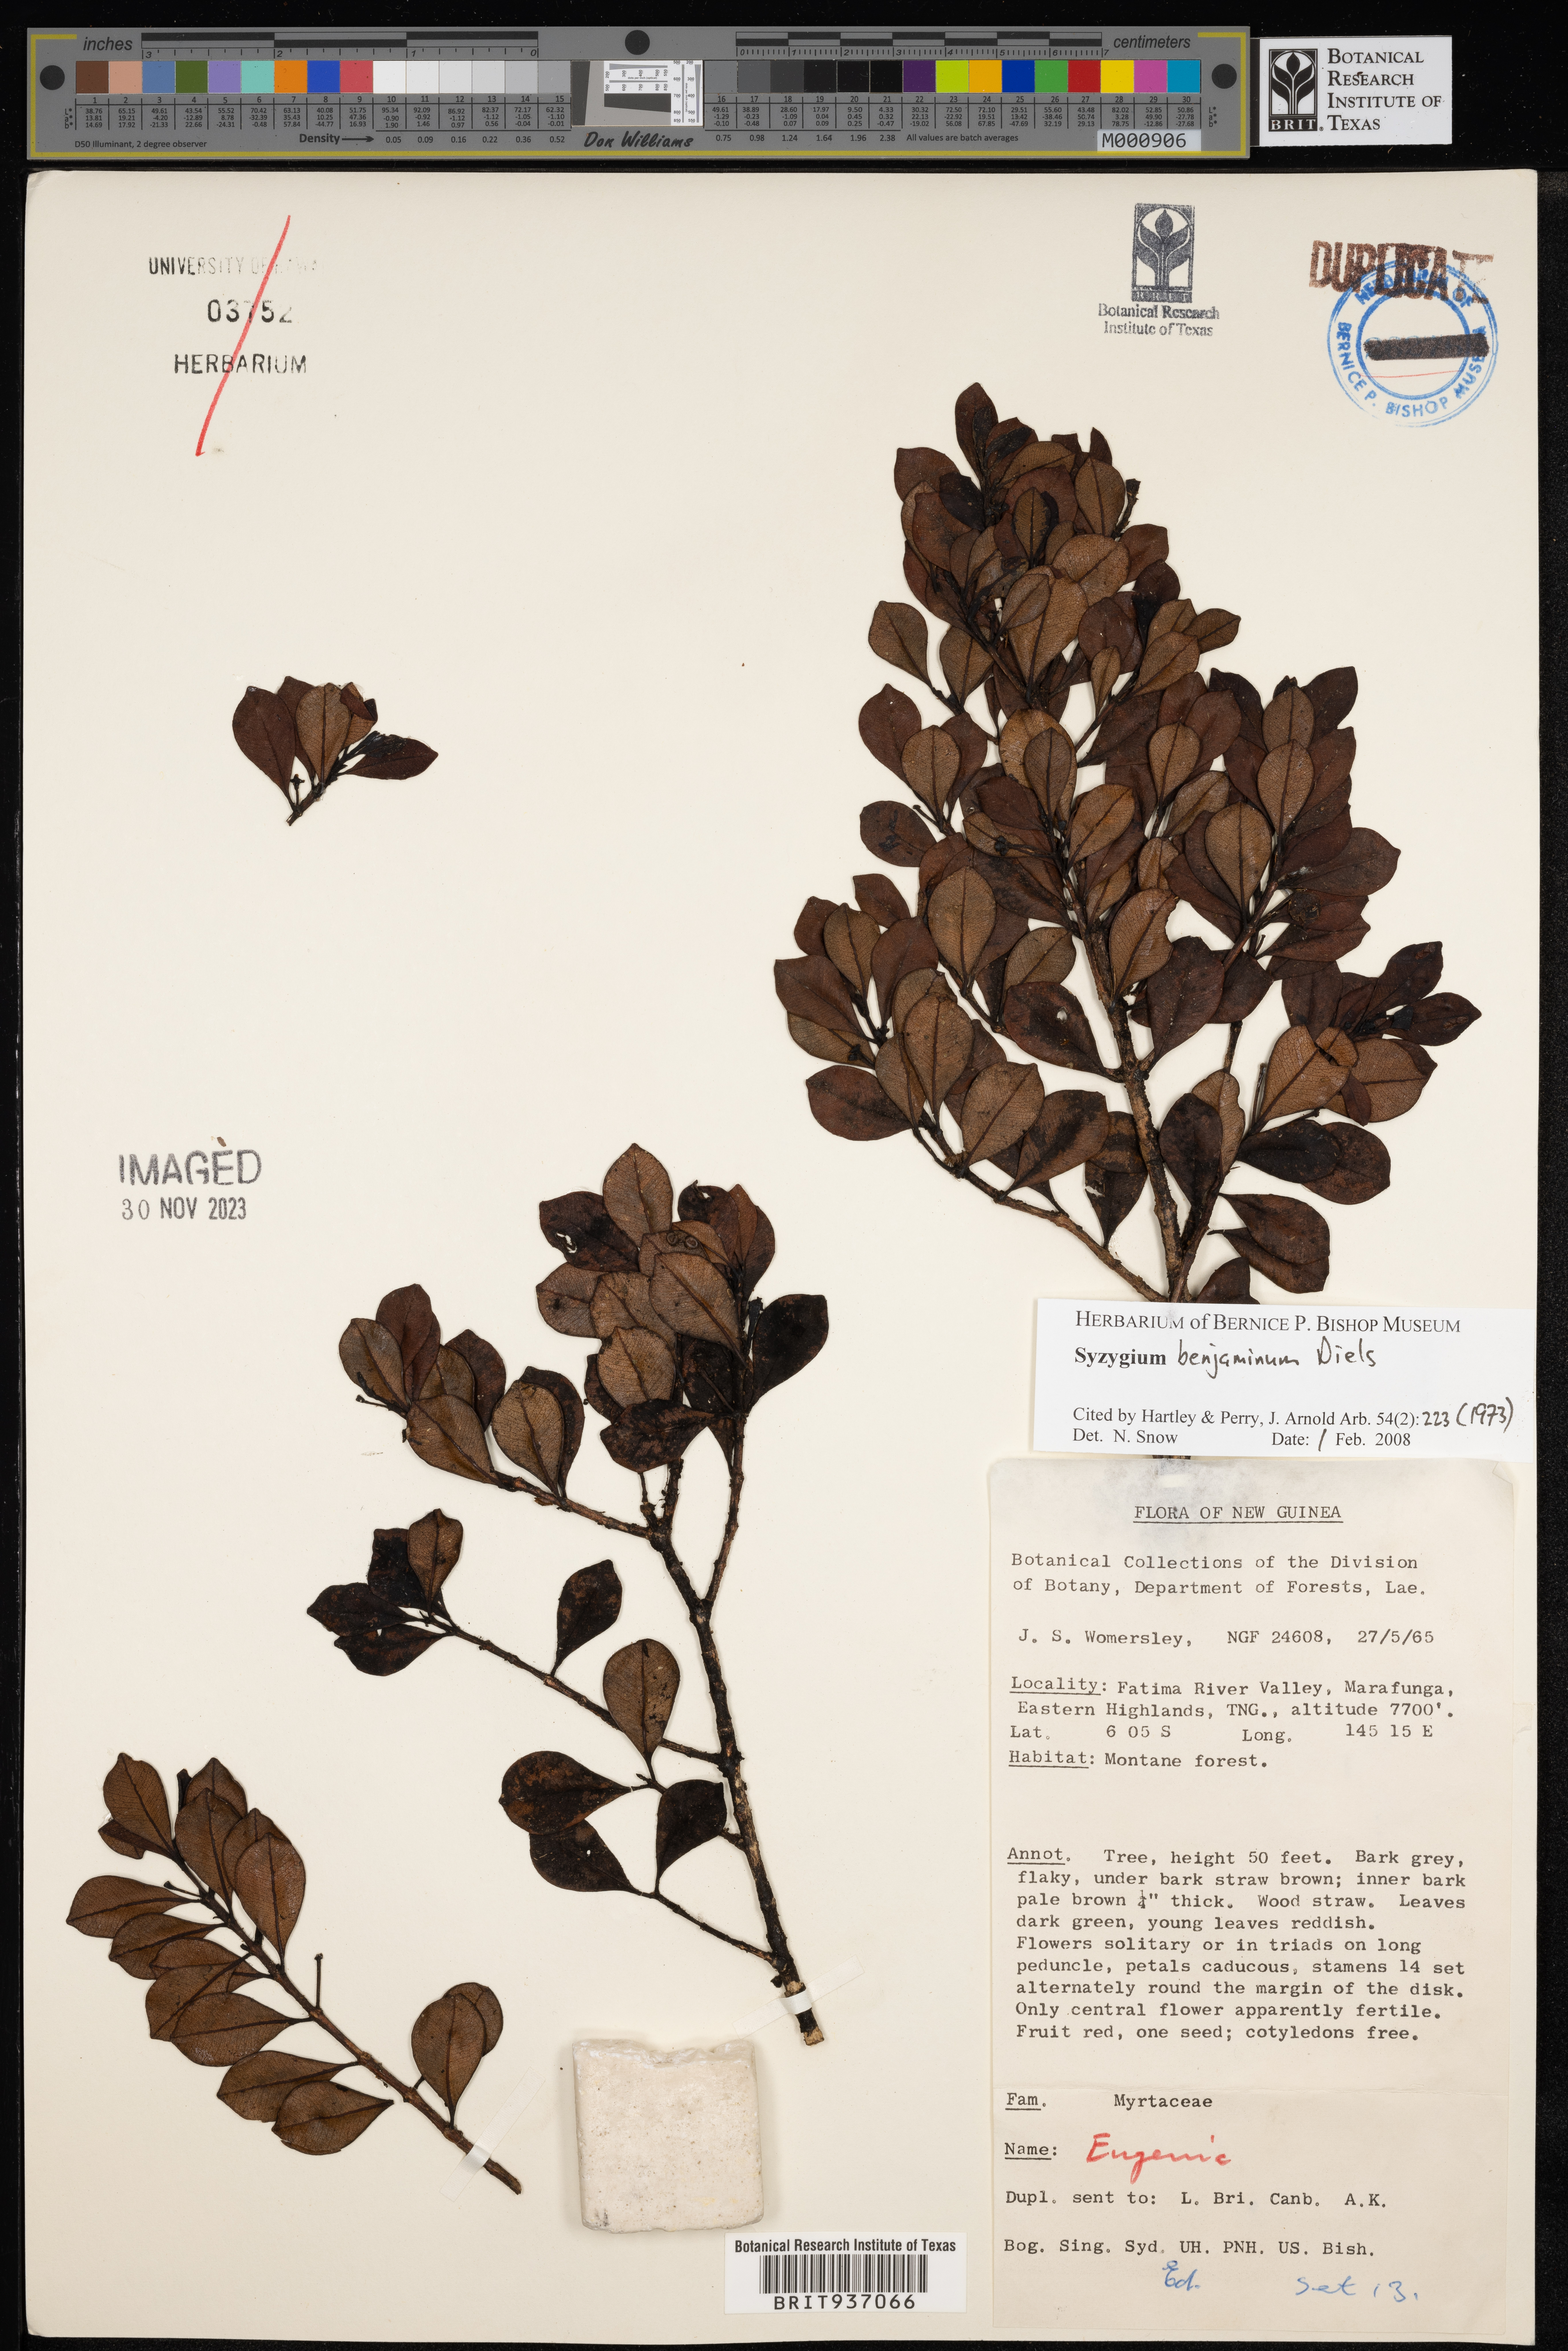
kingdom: Plantae
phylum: Tracheophyta
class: Magnoliopsida
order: Myrtales
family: Myrtaceae
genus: Syzygium
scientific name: Syzygium
